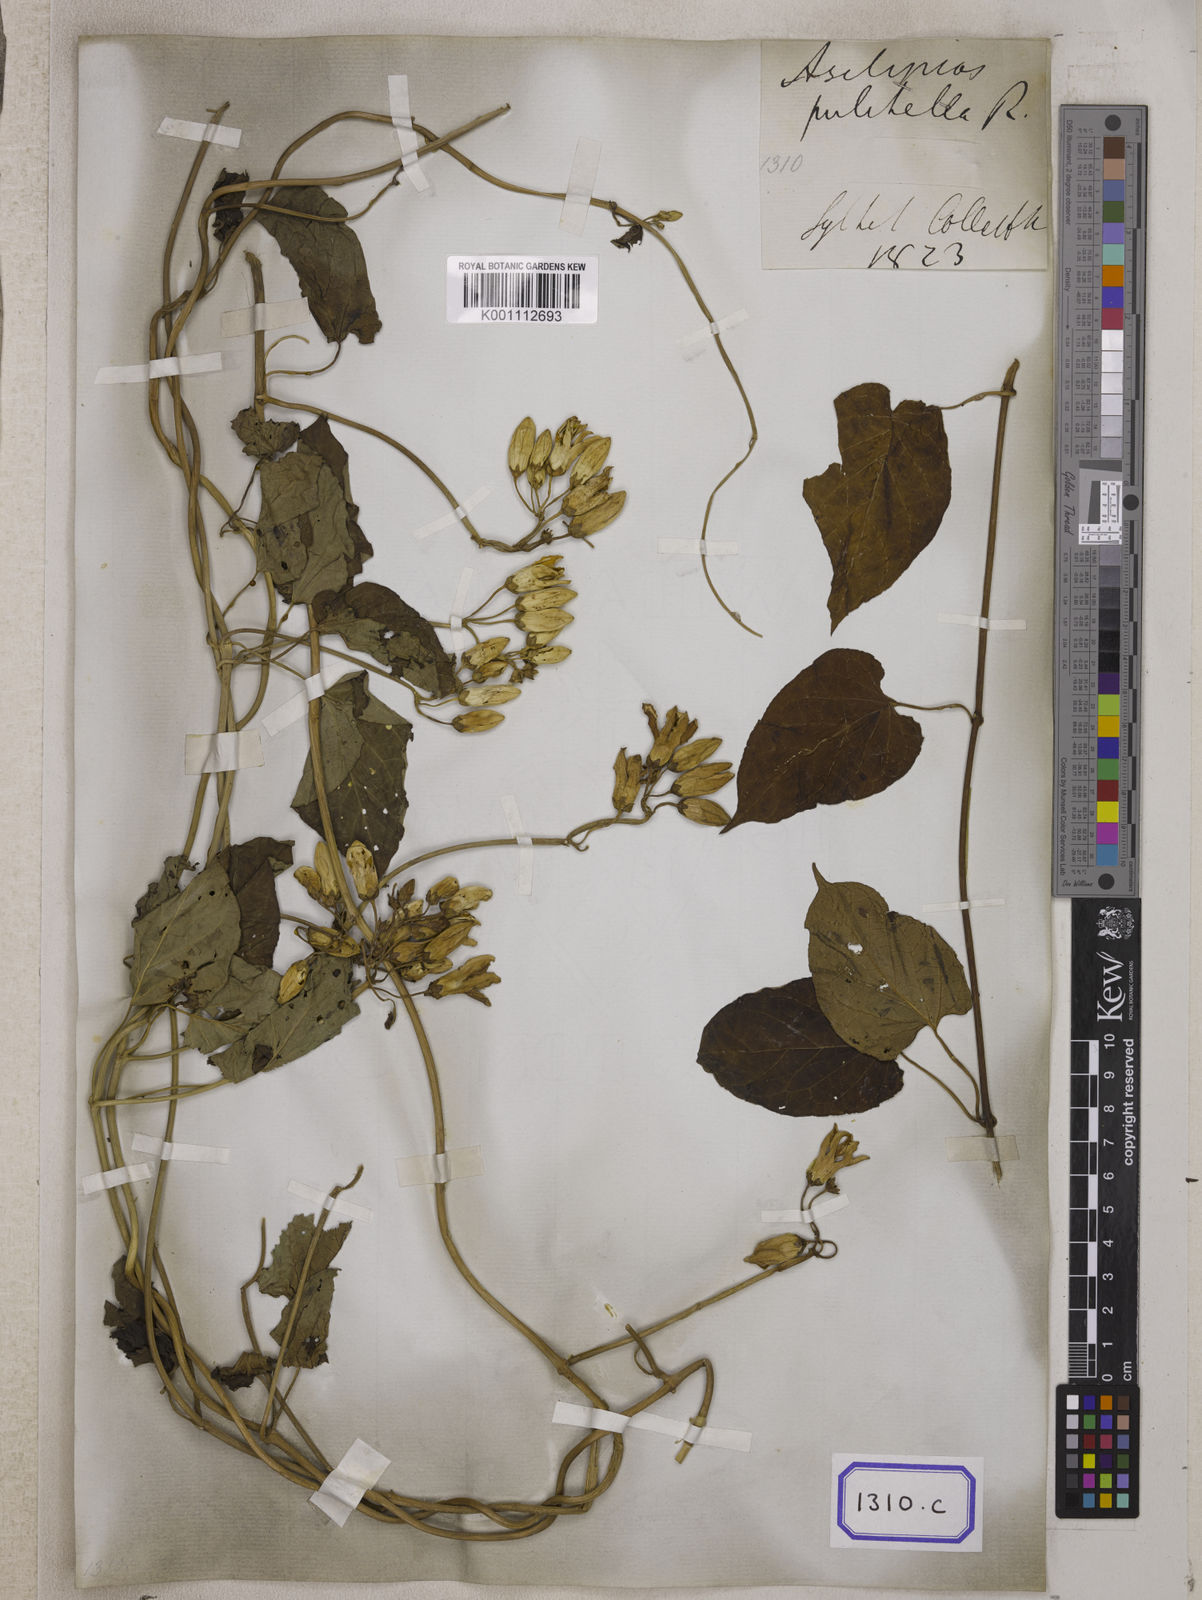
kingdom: Plantae
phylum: Tracheophyta
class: Magnoliopsida
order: Gentianales
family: Apocynaceae
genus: Cynanchum
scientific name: Cynanchum pulchellum
